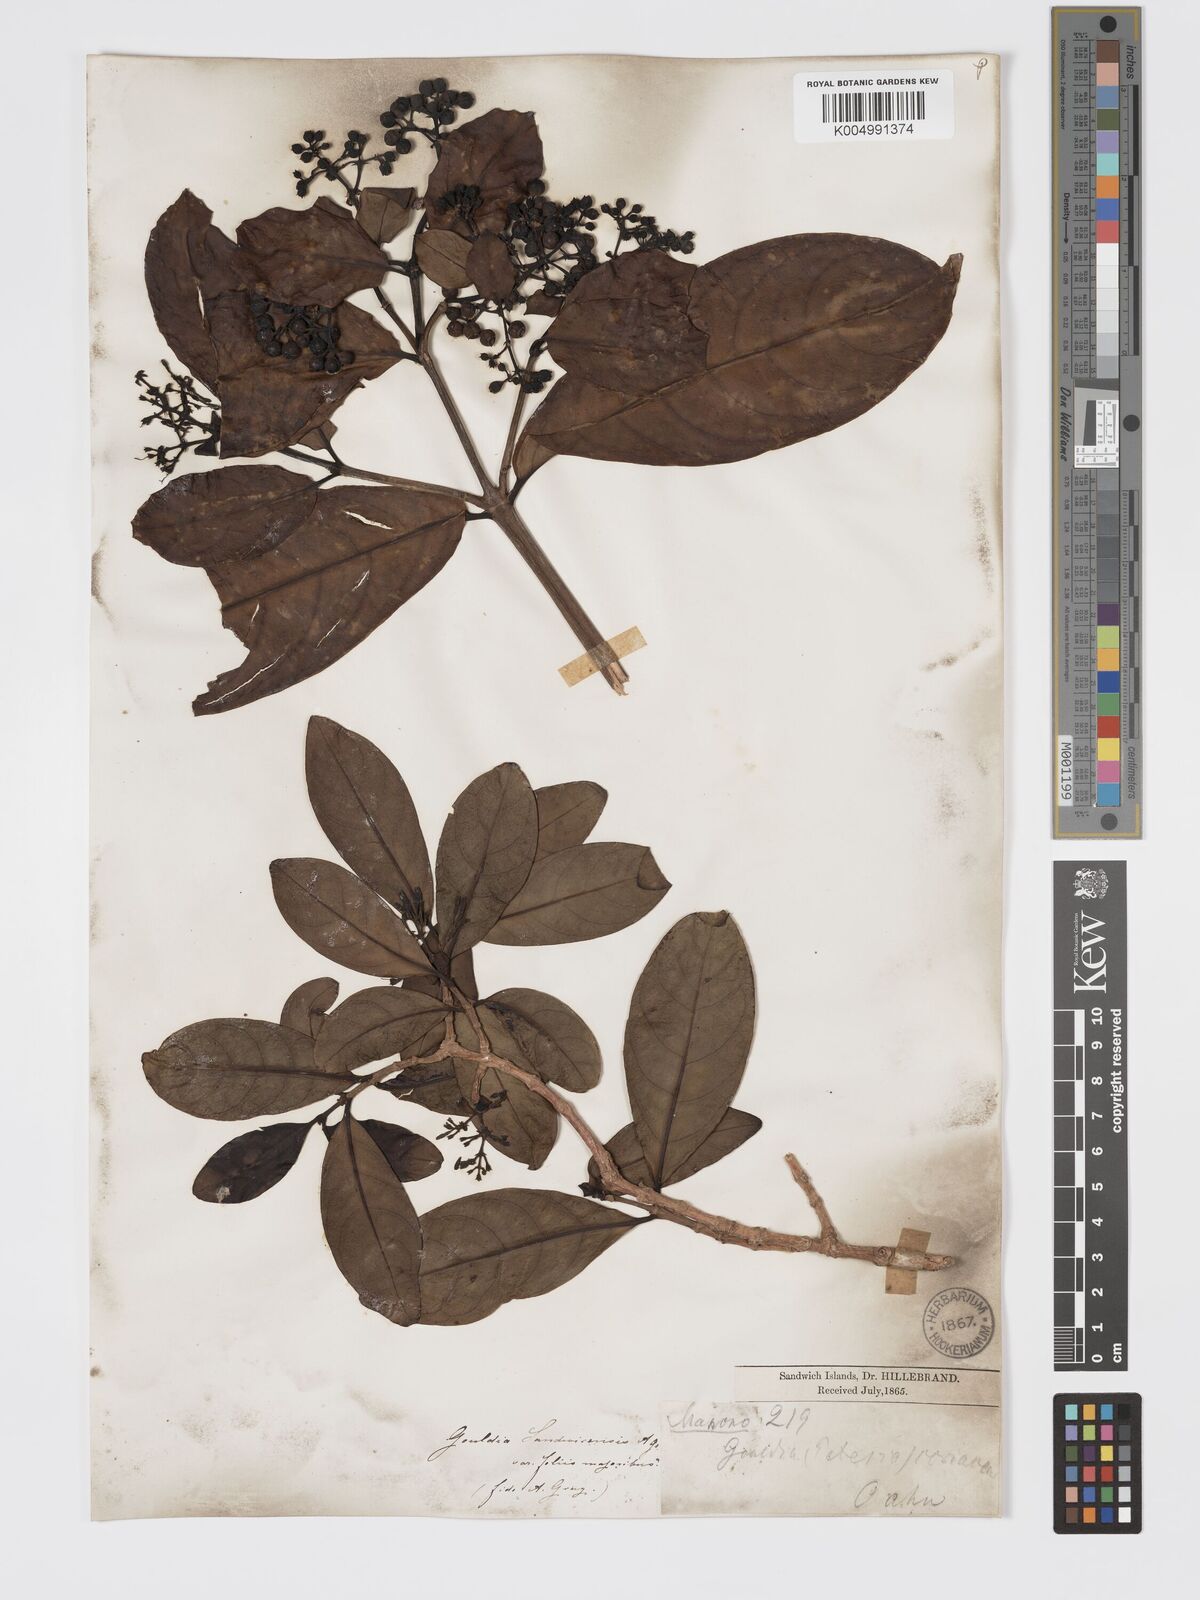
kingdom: Plantae
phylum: Tracheophyta
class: Magnoliopsida
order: Gentianales
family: Rubiaceae
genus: Kadua
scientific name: Kadua affinis
